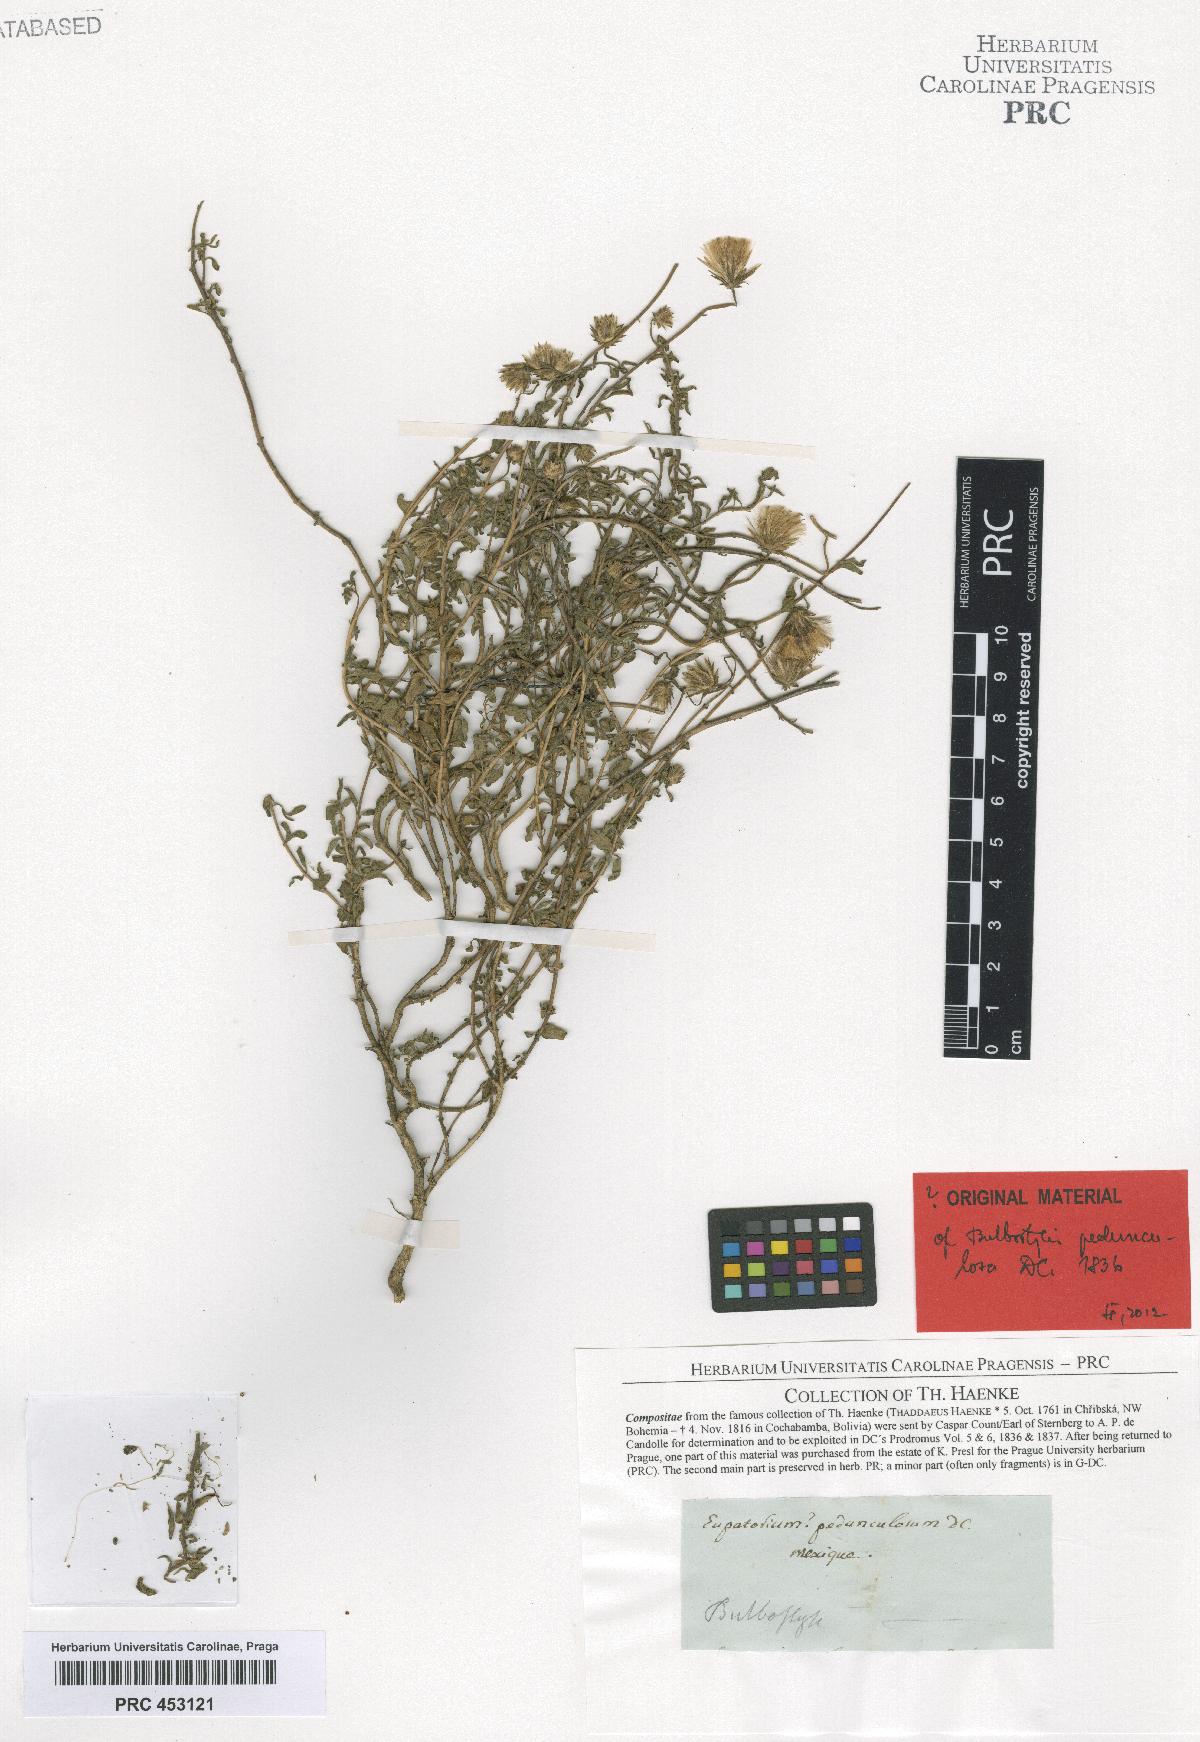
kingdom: Plantae
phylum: Tracheophyta
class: Magnoliopsida
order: Asterales
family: Asteraceae
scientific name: Asteraceae
